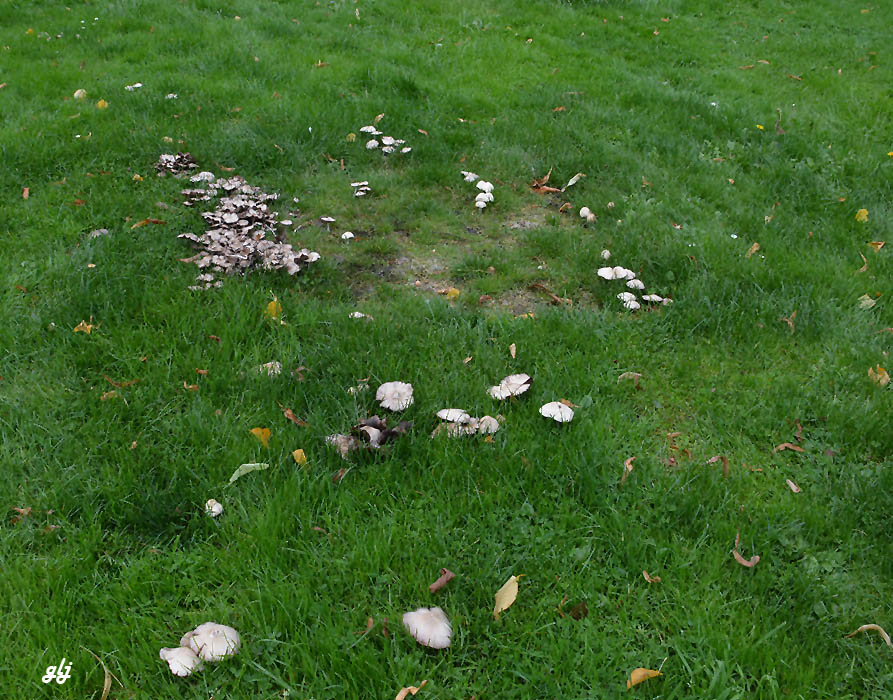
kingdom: Fungi
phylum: Basidiomycota
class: Agaricomycetes
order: Agaricales
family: Psathyrellaceae
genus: Candolleomyces
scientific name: Candolleomyces candolleanus
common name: Candolles mørkhat
